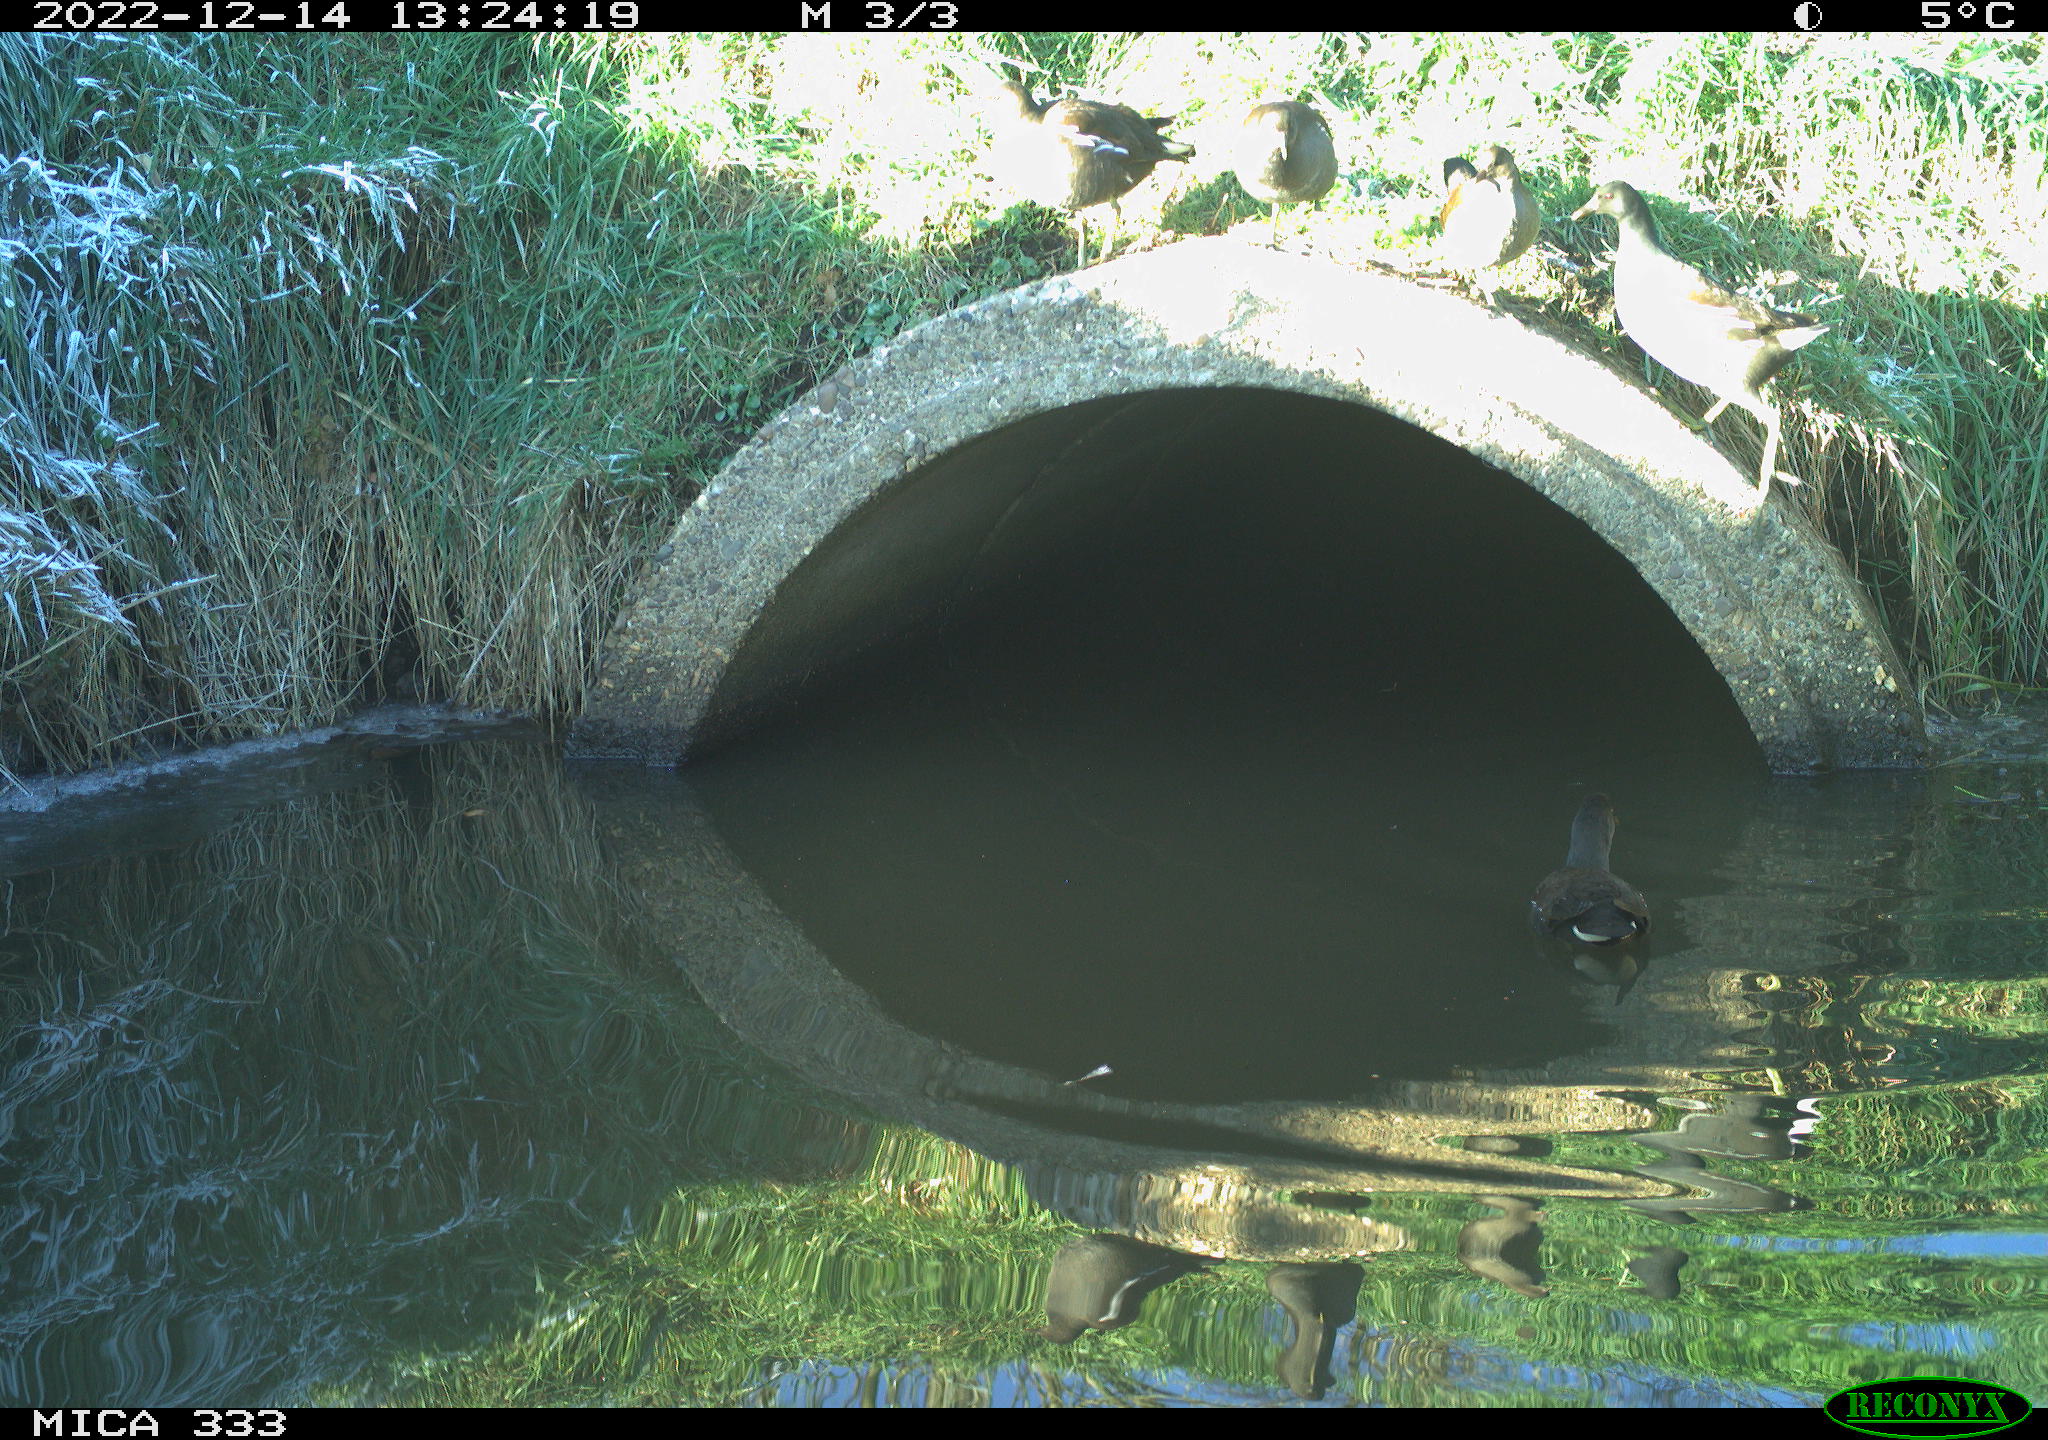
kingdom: Animalia
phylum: Chordata
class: Aves
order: Anseriformes
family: Anatidae
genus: Anas
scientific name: Anas
